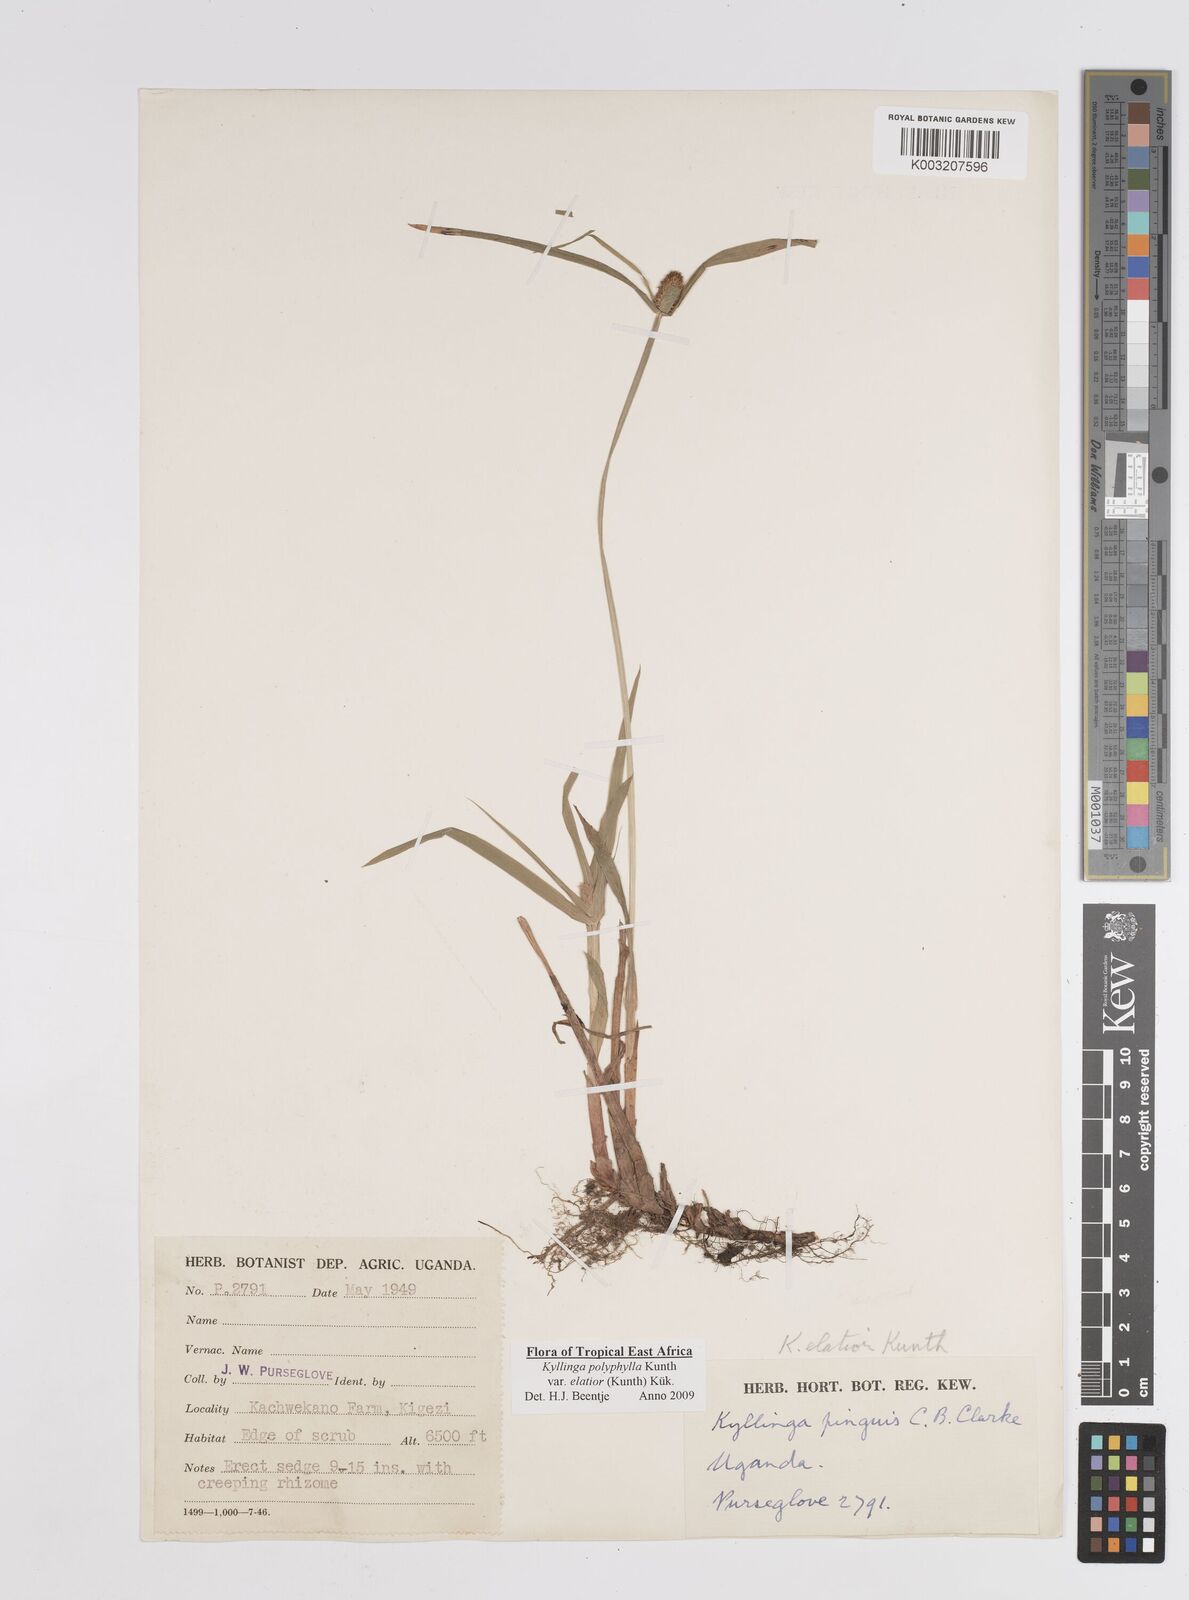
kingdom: Plantae
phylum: Tracheophyta
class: Liliopsida
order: Poales
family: Cyperaceae
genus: Cyperus
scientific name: Cyperus
